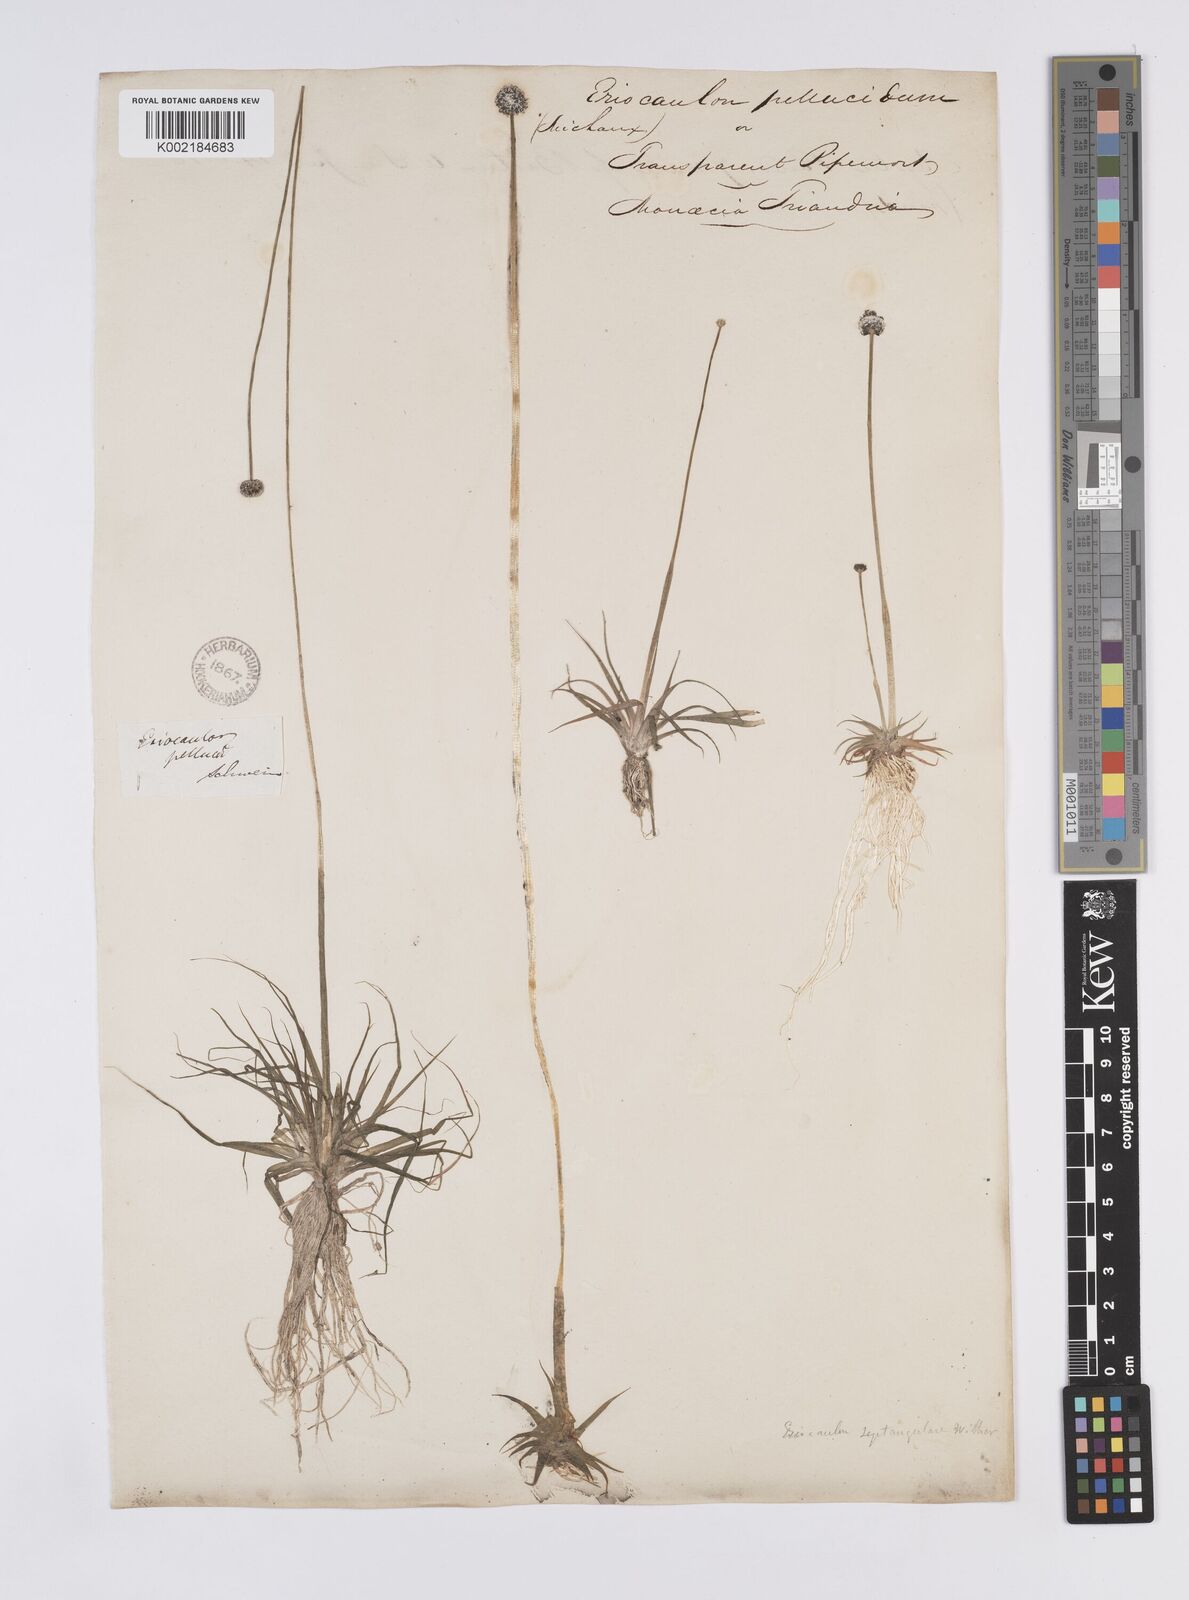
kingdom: Plantae
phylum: Tracheophyta
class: Liliopsida
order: Poales
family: Eriocaulaceae
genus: Eriocaulon
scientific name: Eriocaulon aquaticum
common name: Pipewort
